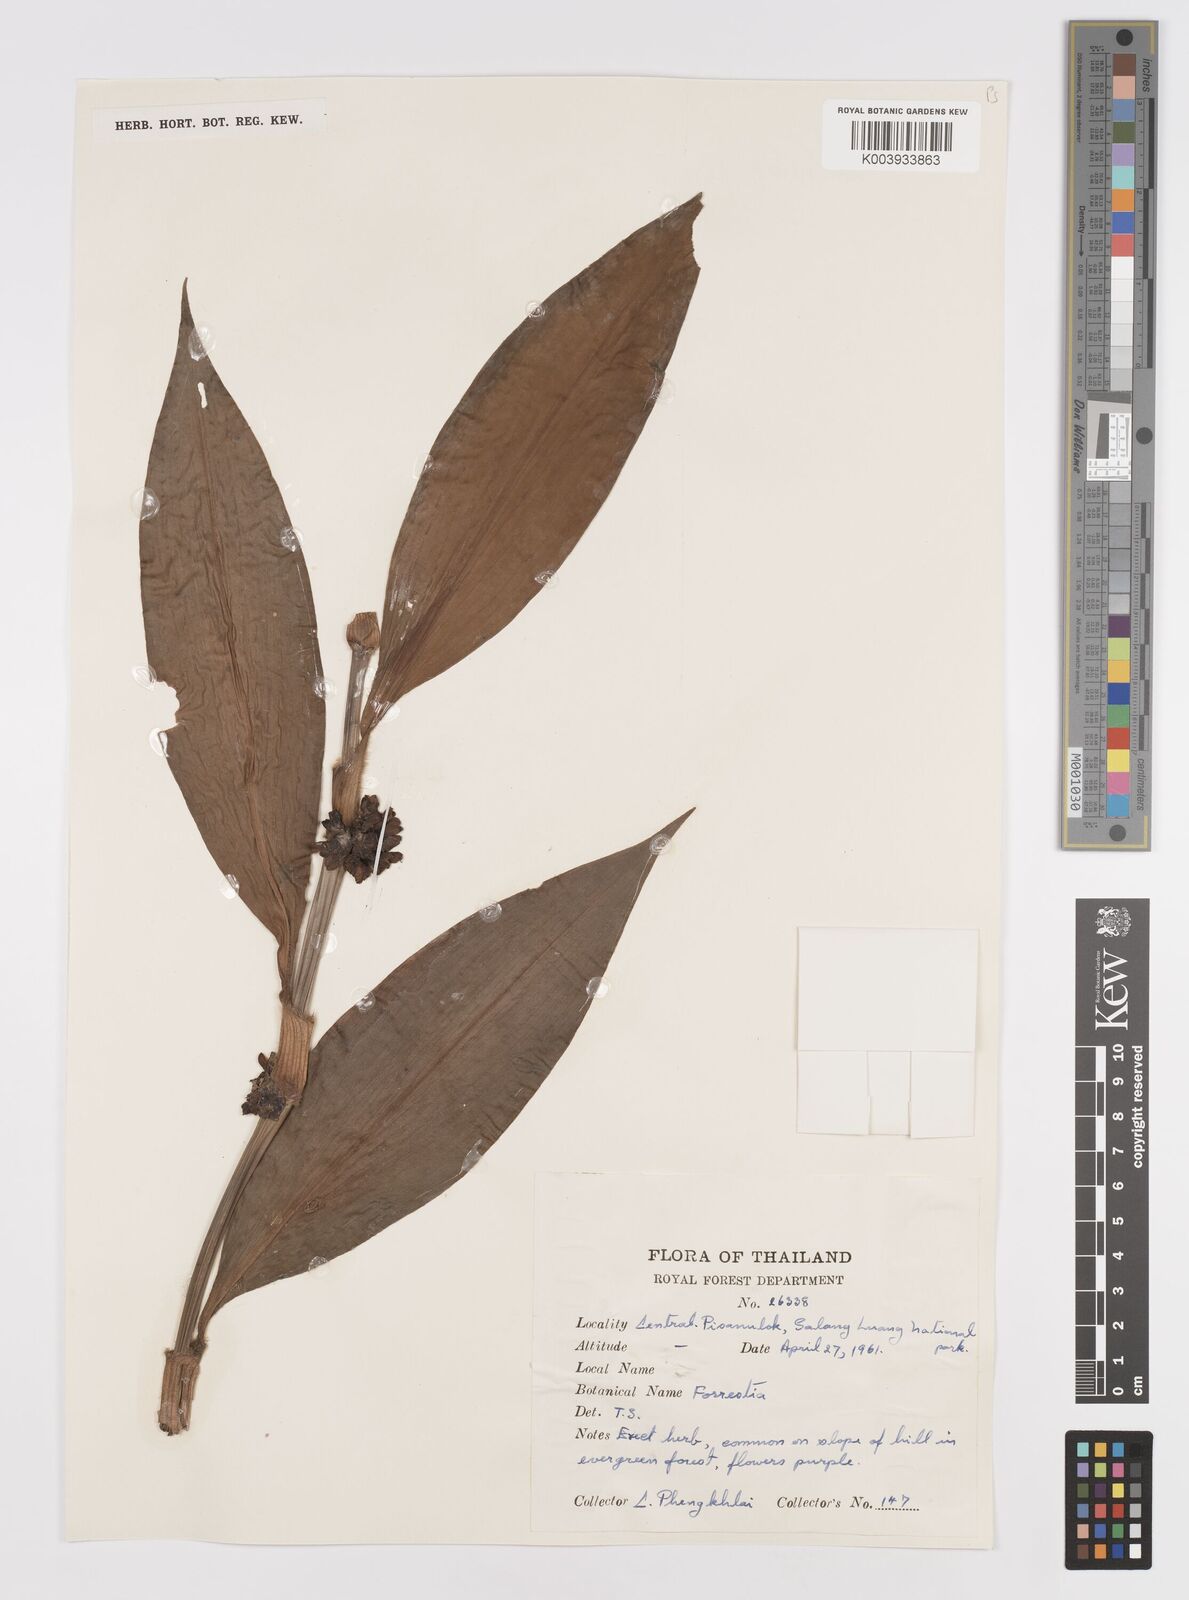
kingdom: Plantae
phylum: Tracheophyta
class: Liliopsida
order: Commelinales
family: Commelinaceae
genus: Amischotolype
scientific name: Amischotolype
